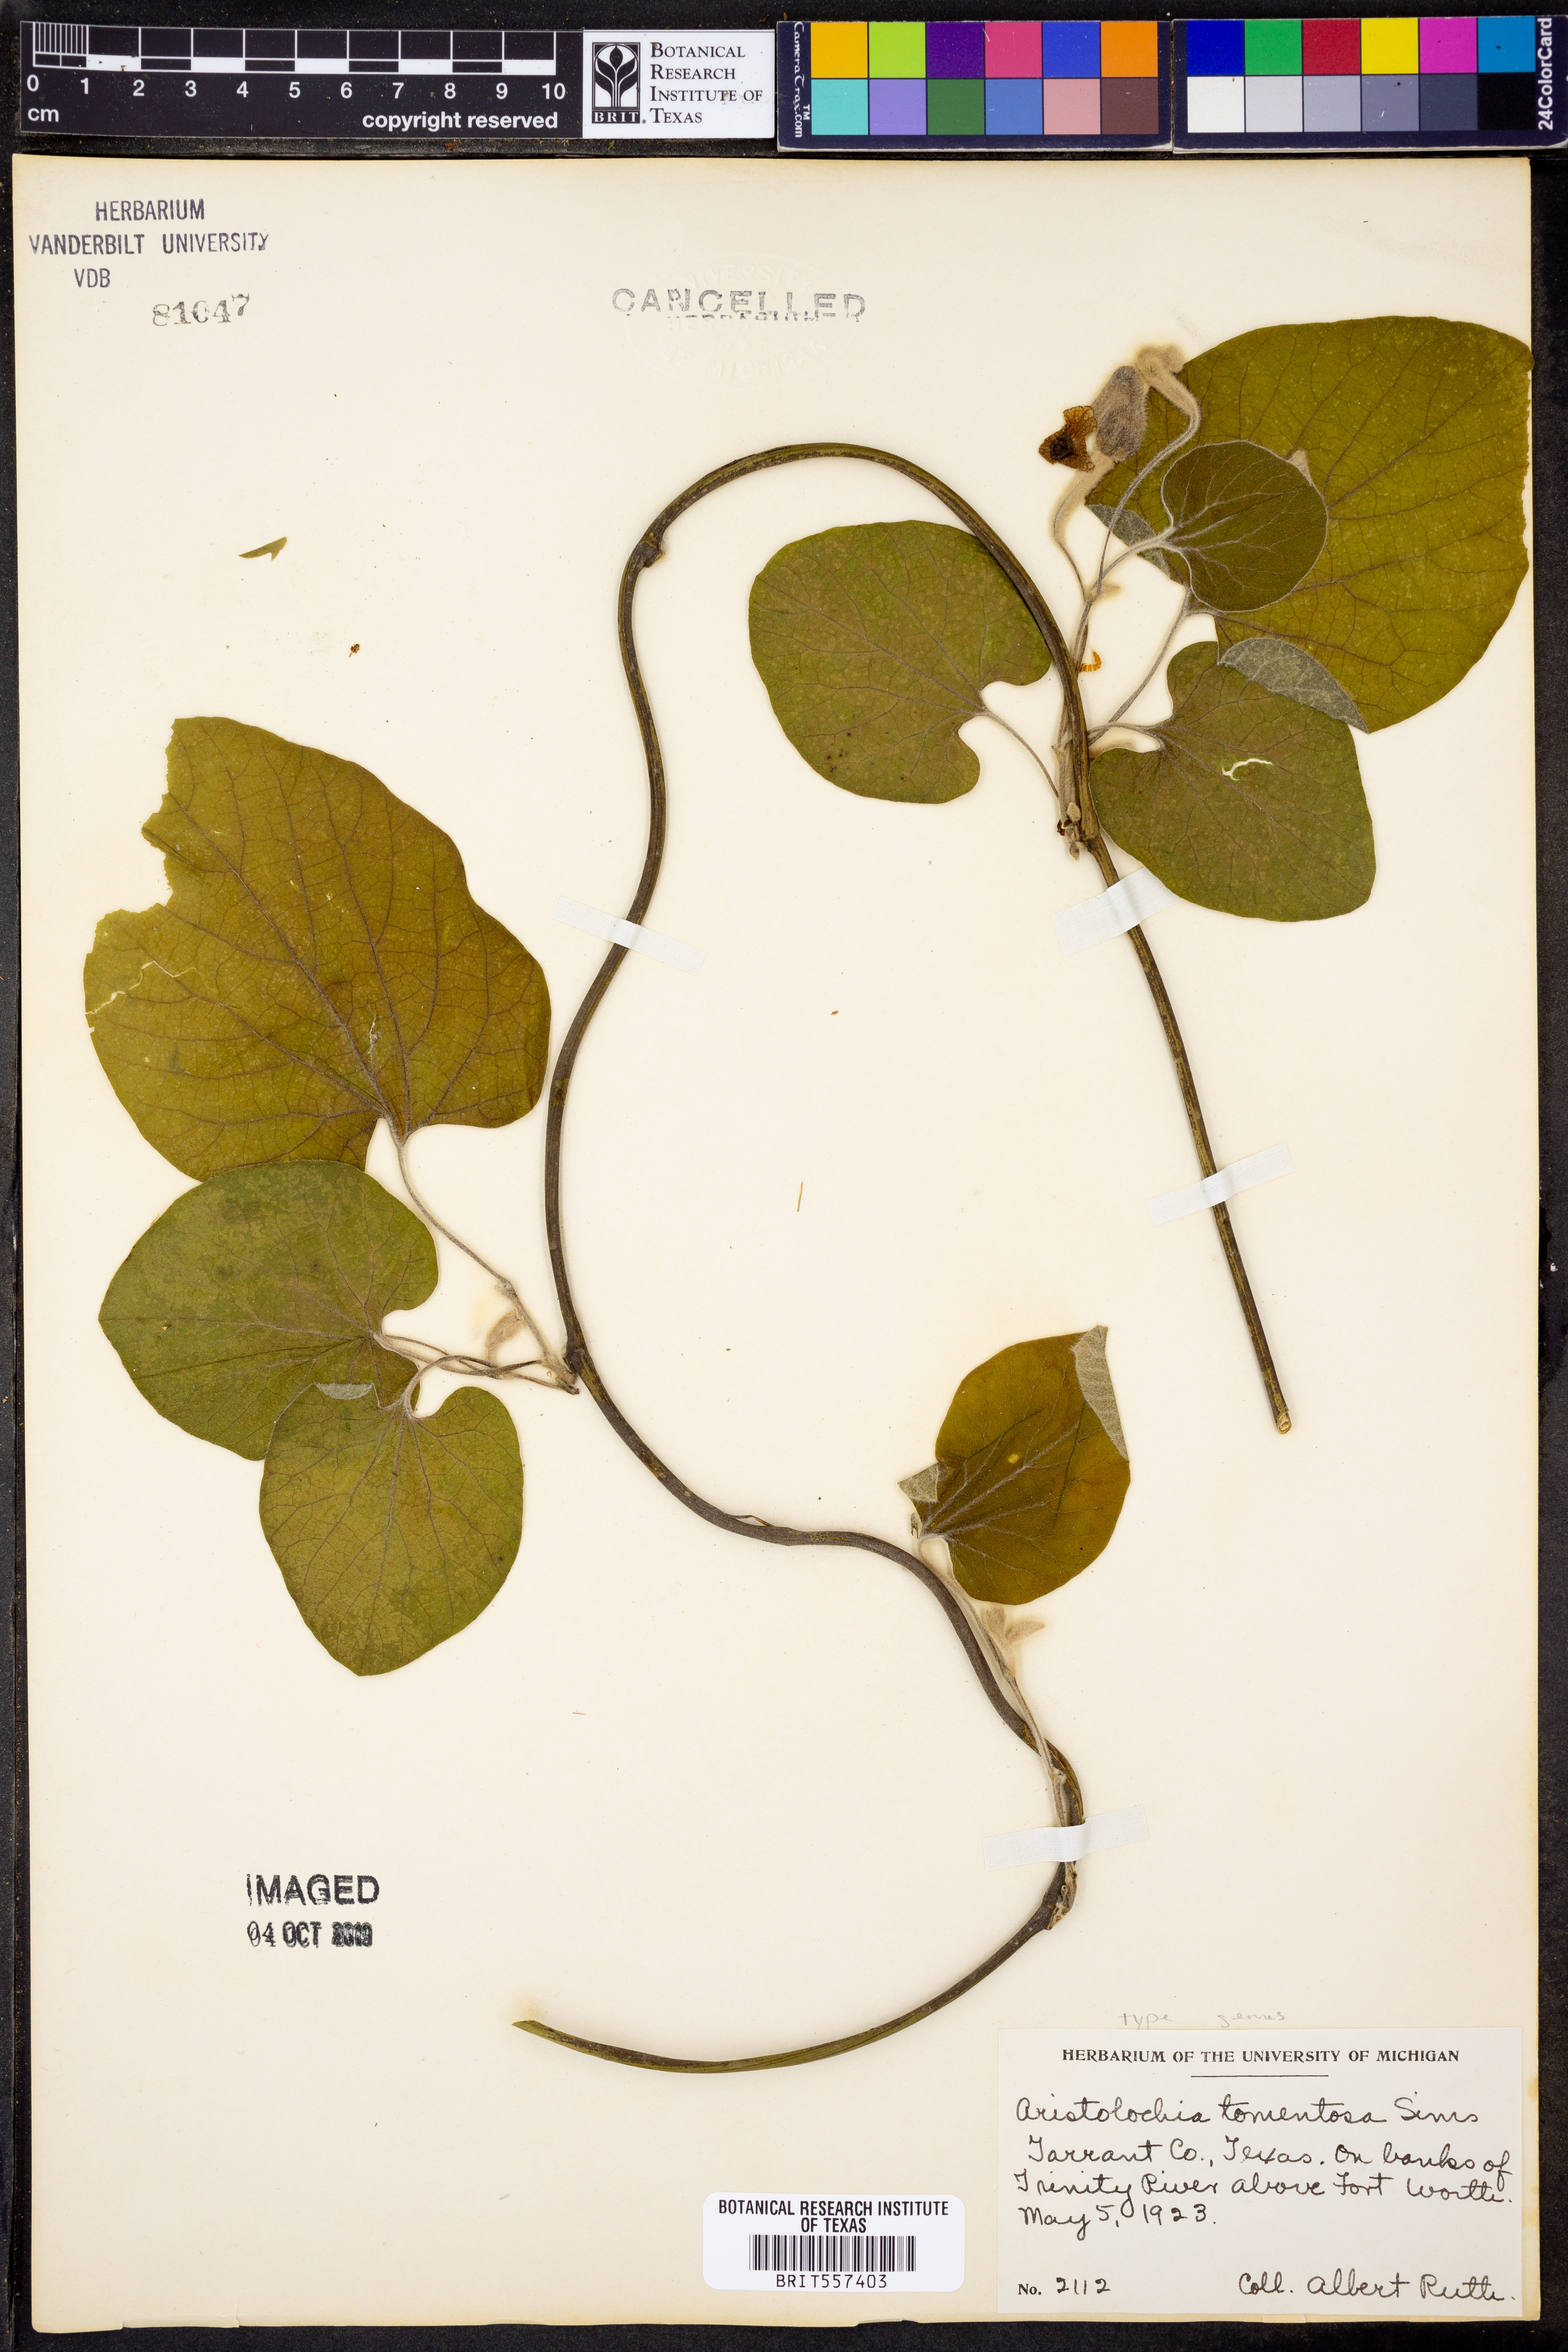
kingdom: Plantae
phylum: Tracheophyta
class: Magnoliopsida
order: Piperales
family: Aristolochiaceae
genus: Isotrema
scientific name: Isotrema tomentosum
